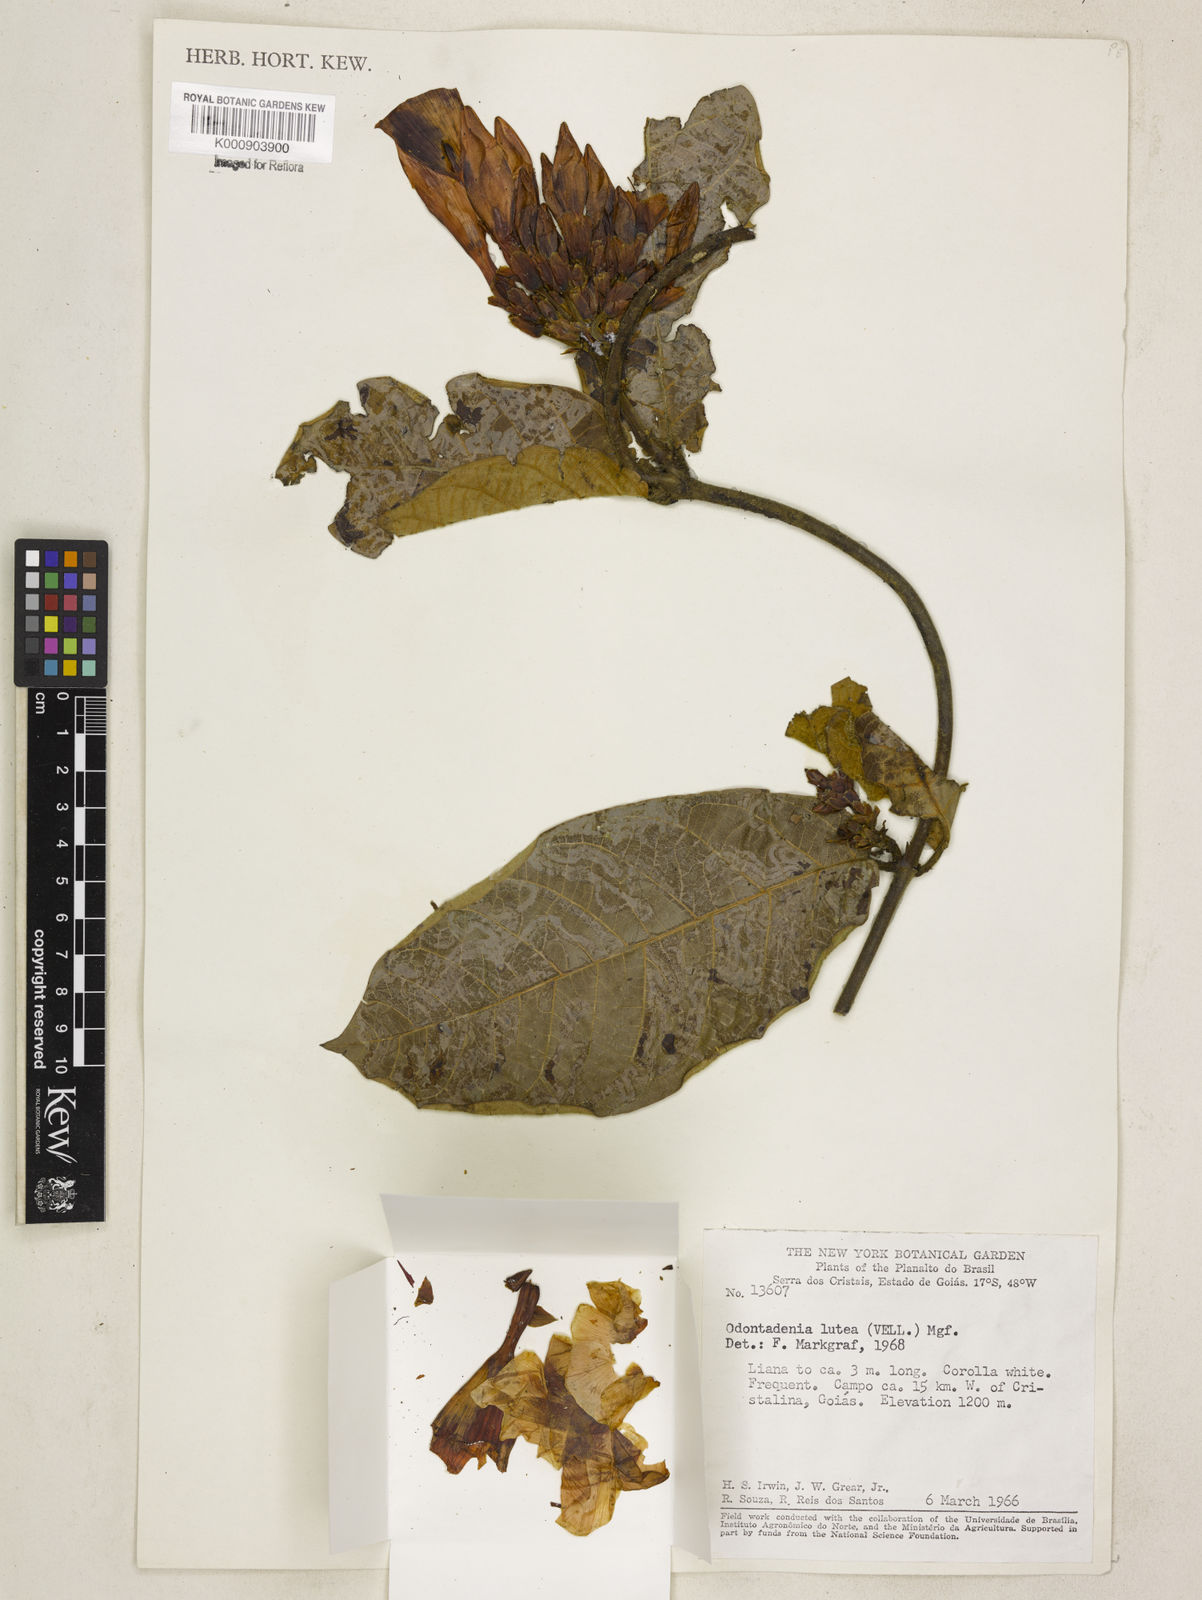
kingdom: Plantae
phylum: Tracheophyta
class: Magnoliopsida
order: Gentianales
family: Apocynaceae
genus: Odontadenia
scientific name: Odontadenia lutea
